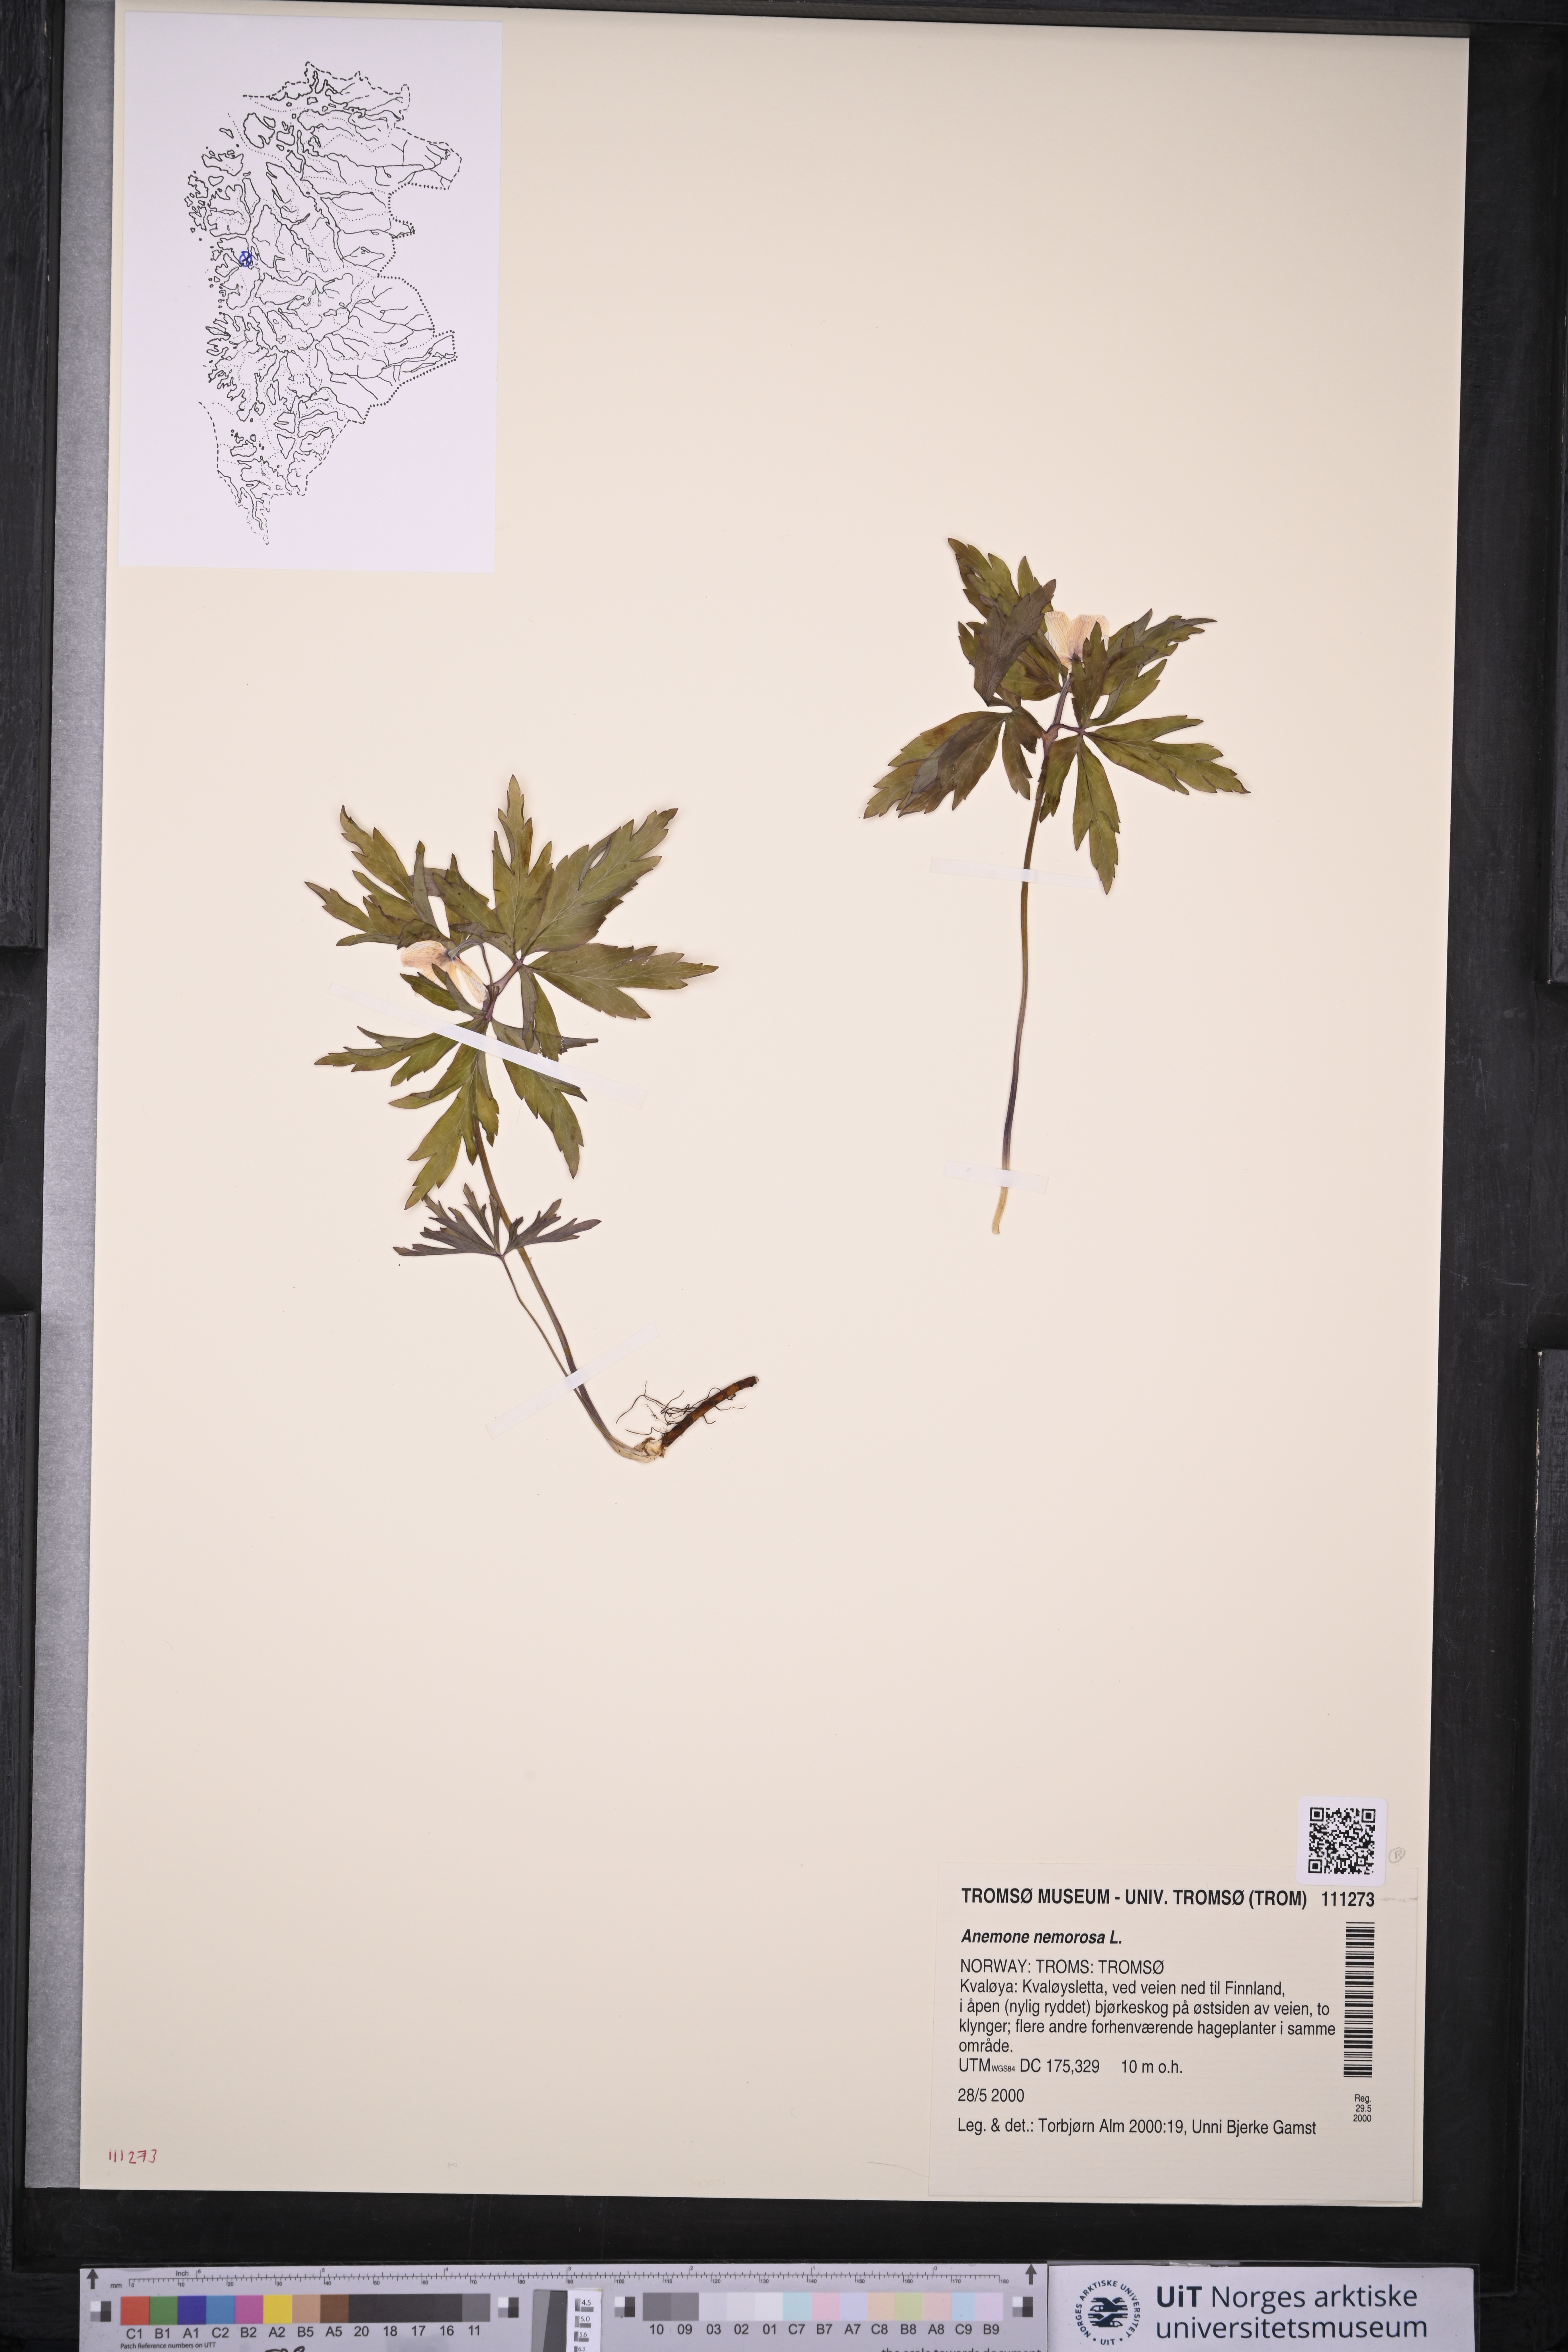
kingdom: Plantae
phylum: Tracheophyta
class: Magnoliopsida
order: Ranunculales
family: Ranunculaceae
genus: Anemone
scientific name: Anemone nemorosa
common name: Wood anemone
